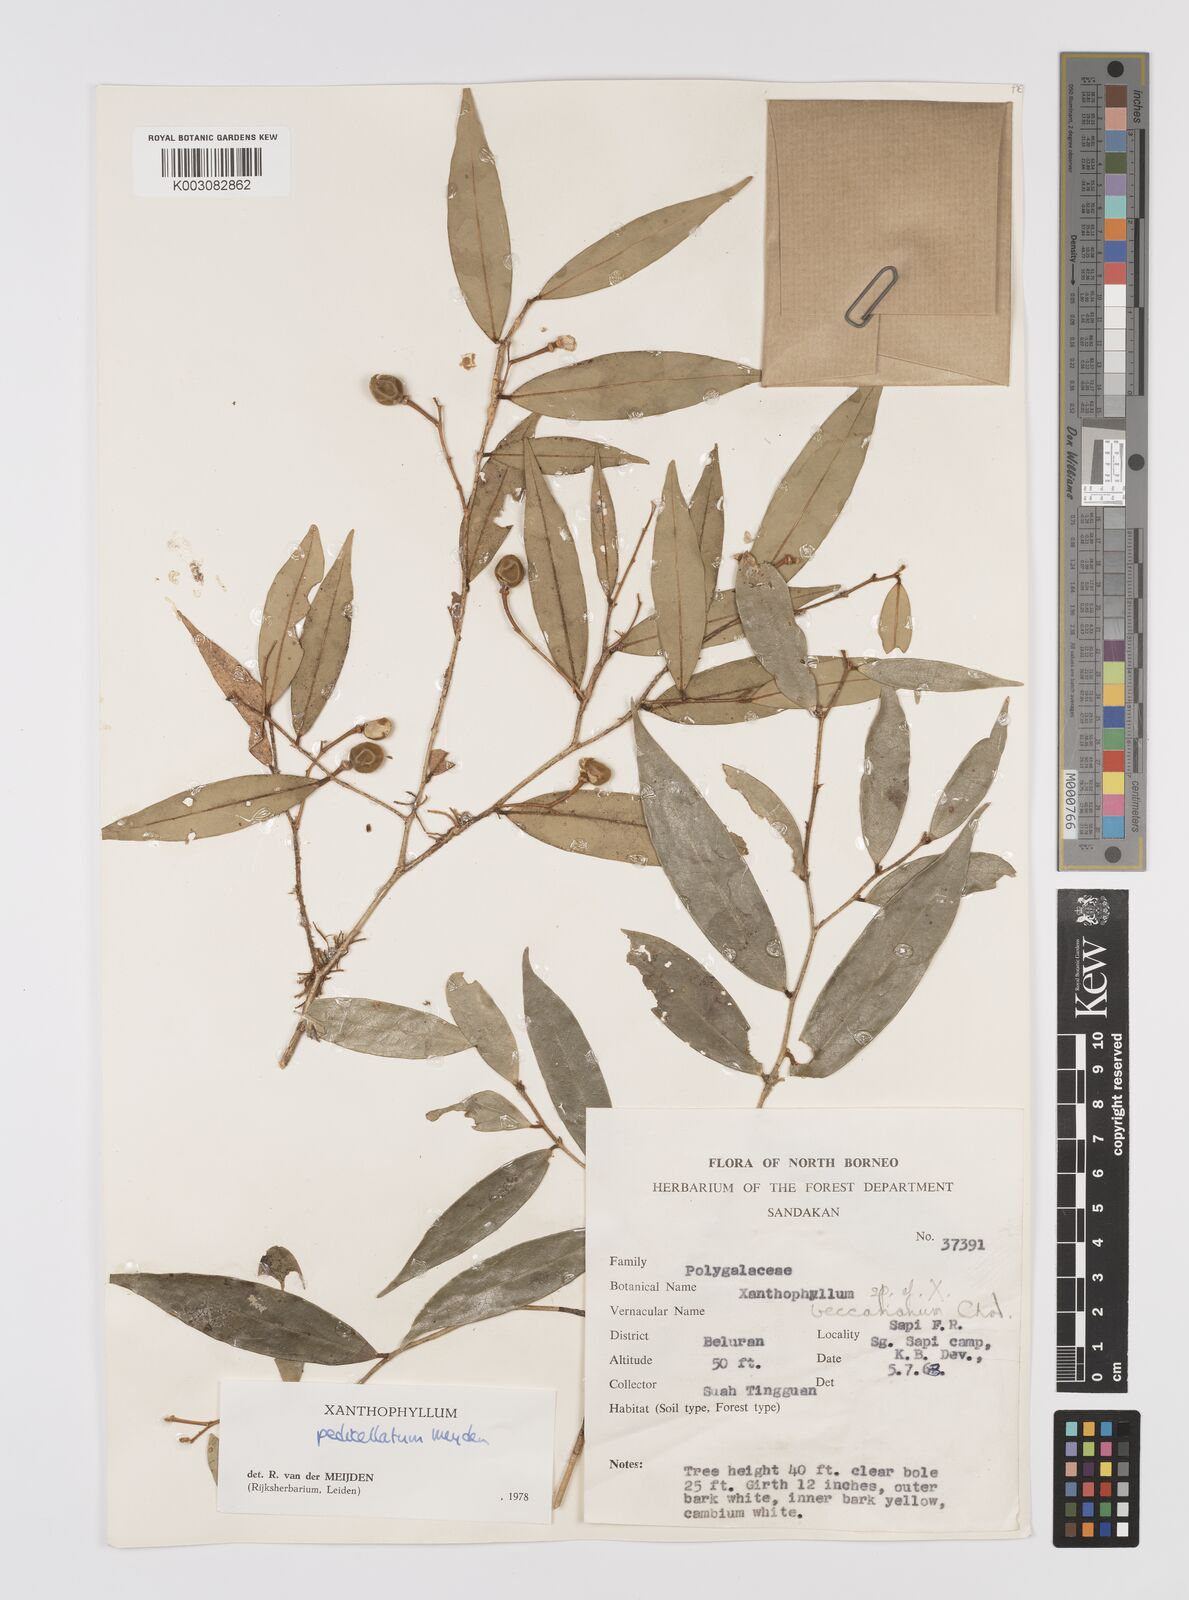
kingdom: Plantae
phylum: Tracheophyta
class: Magnoliopsida
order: Fabales
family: Polygalaceae
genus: Xanthophyllum
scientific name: Xanthophyllum pedicellatum
